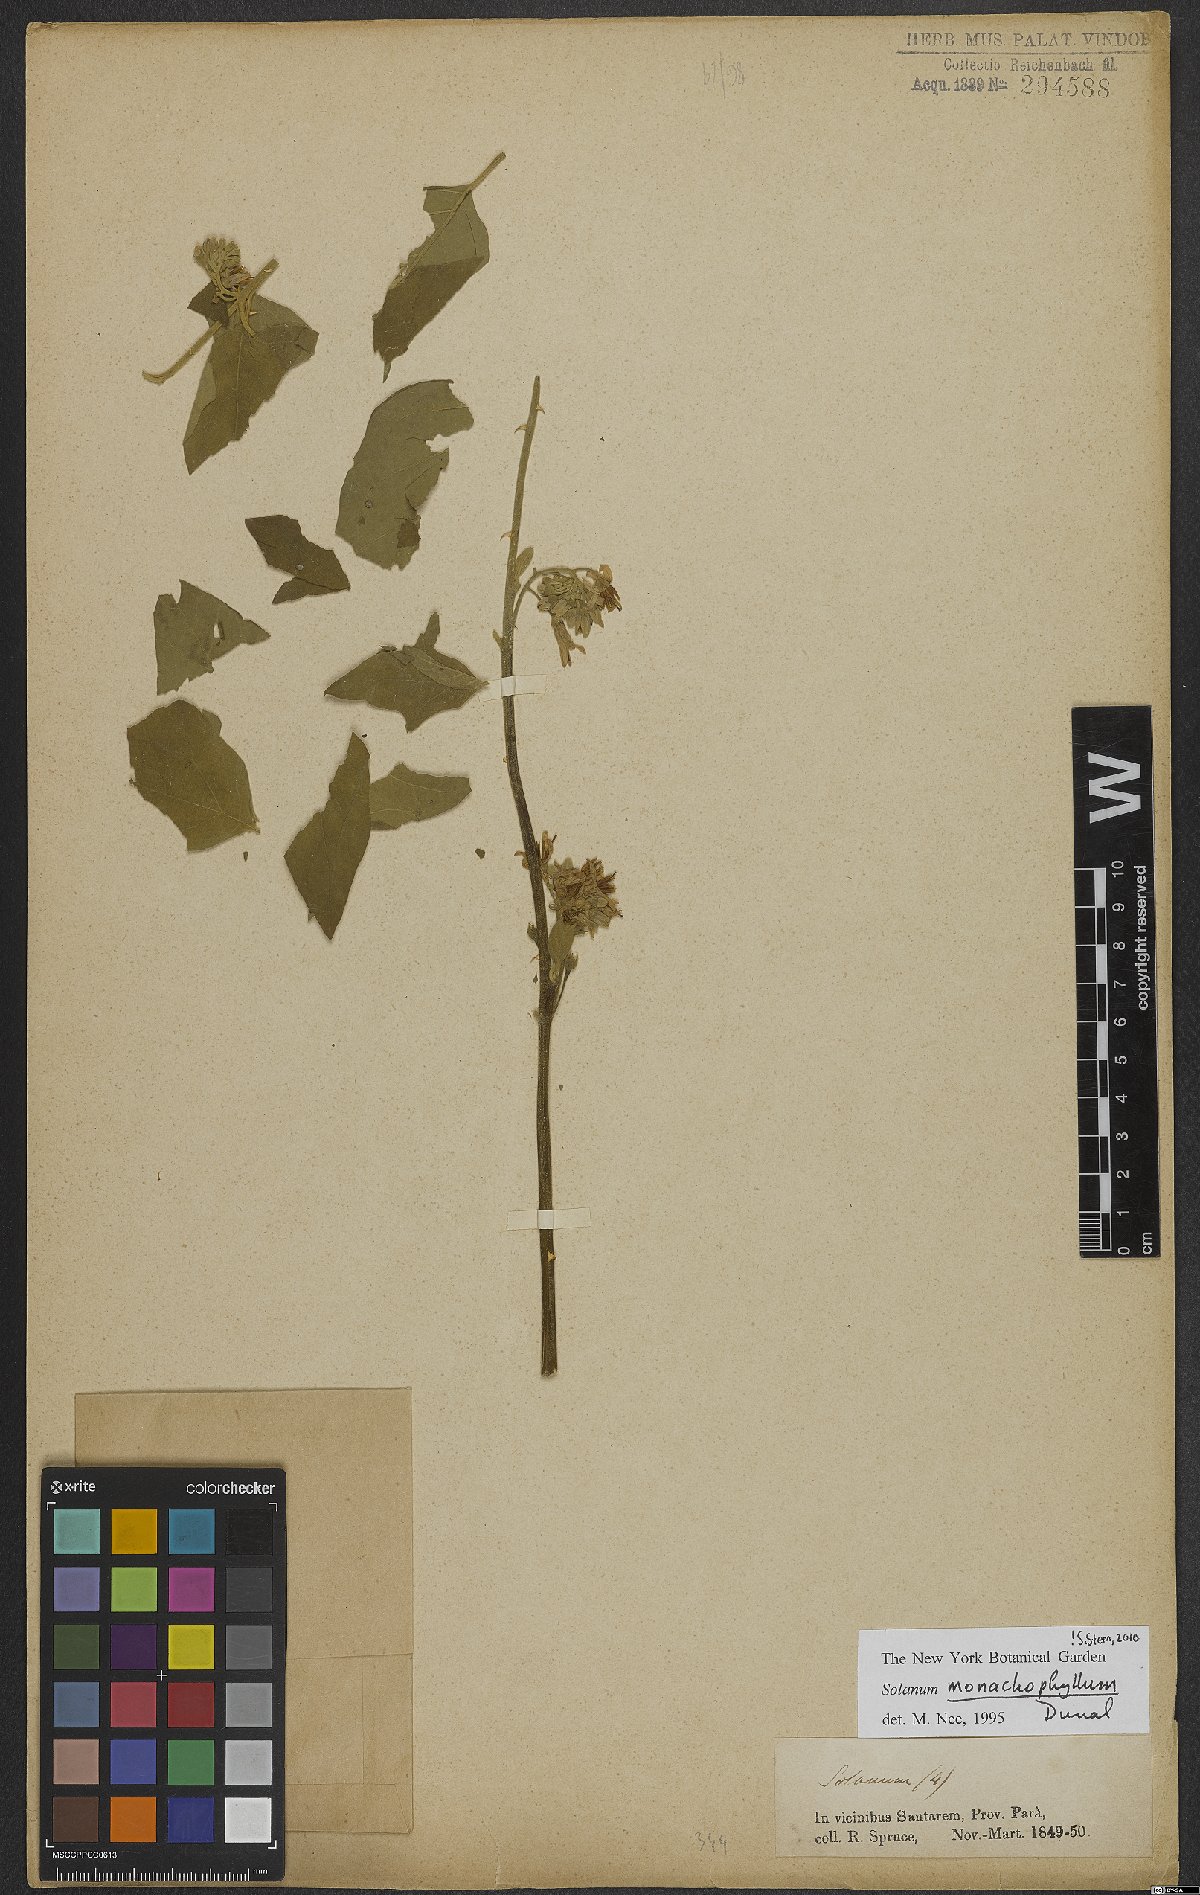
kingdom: Plantae
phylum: Tracheophyta
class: Magnoliopsida
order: Solanales
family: Solanaceae
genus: Solanum
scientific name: Solanum monachophyllum
